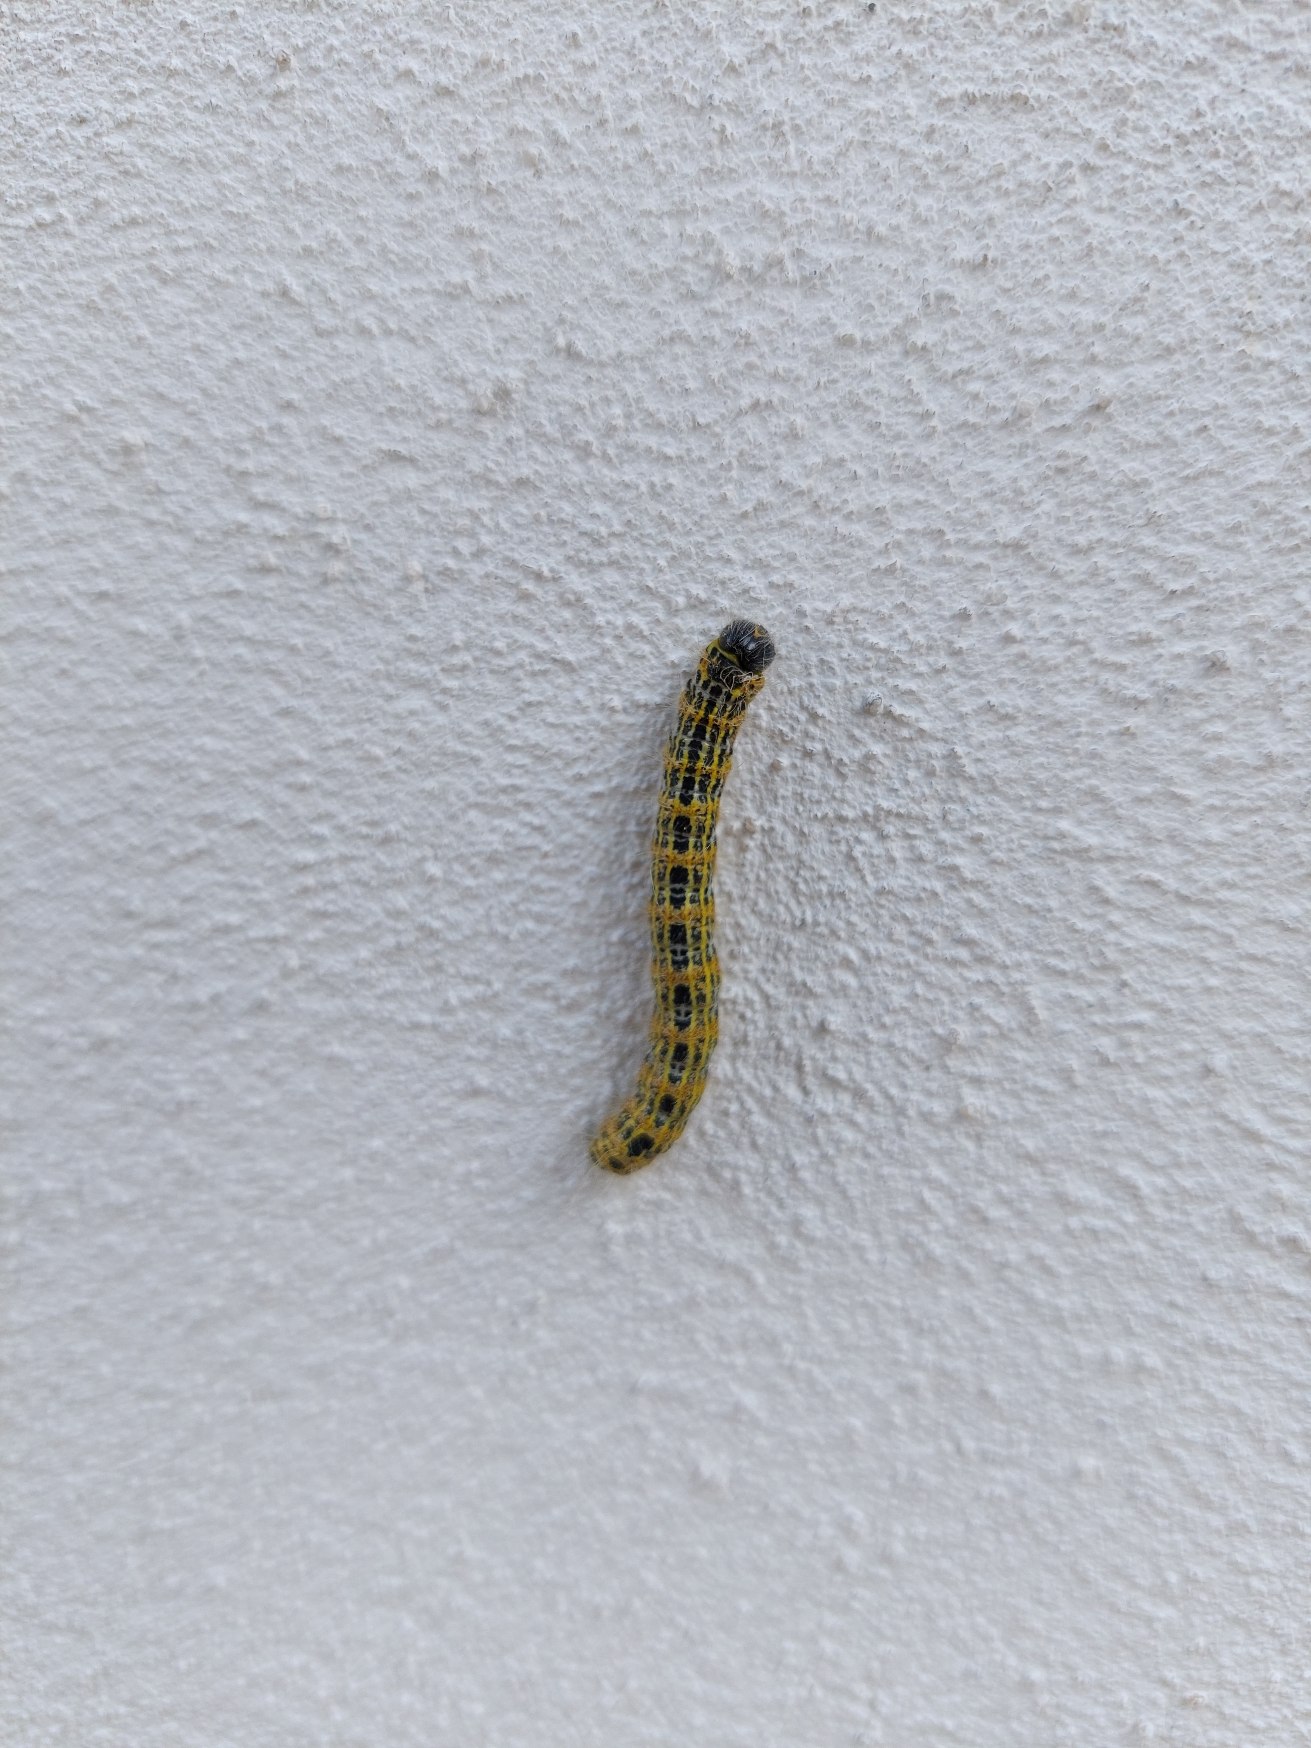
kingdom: Animalia
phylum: Arthropoda
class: Insecta
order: Lepidoptera
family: Notodontidae
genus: Phalera
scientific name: Phalera bucephala
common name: Måneplet
